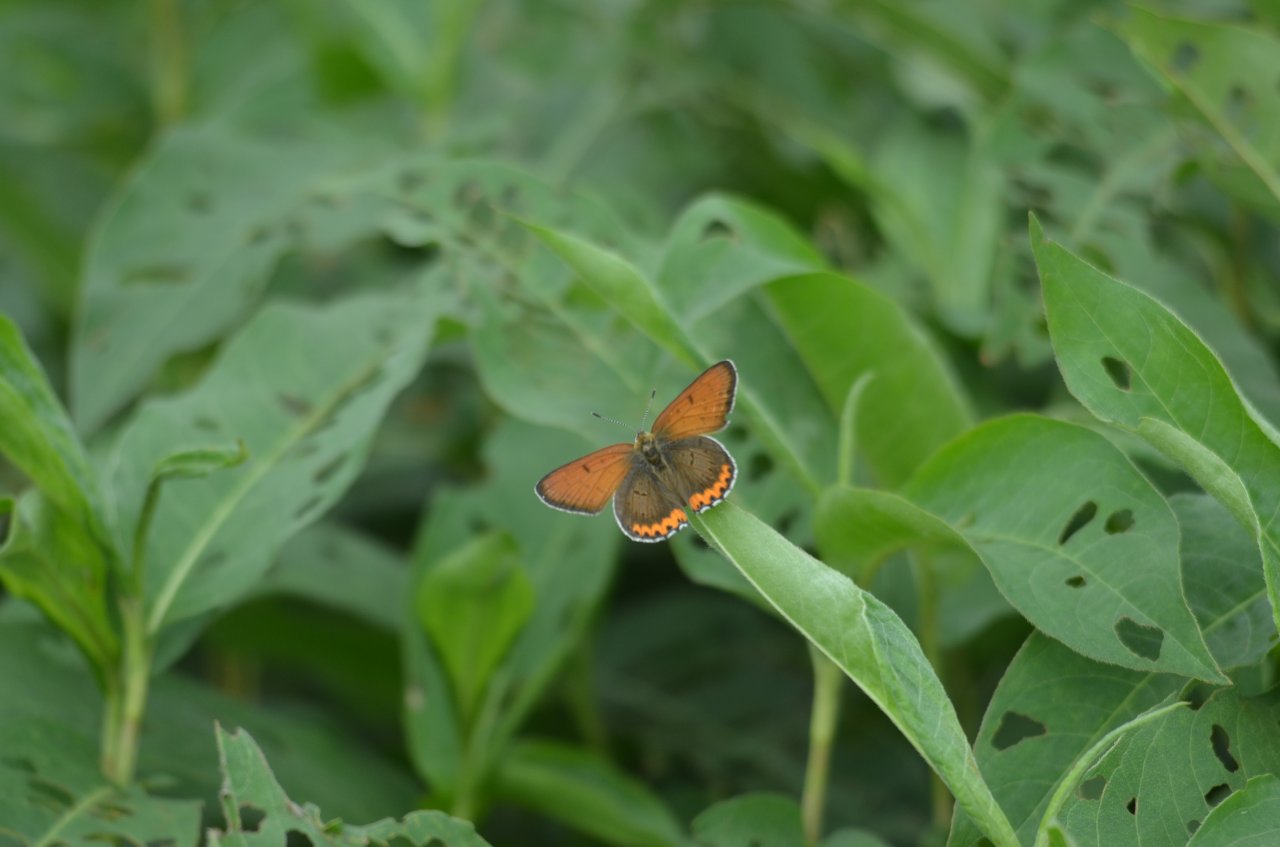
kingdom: Animalia
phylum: Arthropoda
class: Insecta
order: Lepidoptera
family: Sesiidae
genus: Sesia
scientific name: Sesia Lycaena hyllus
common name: Bronze Copper
